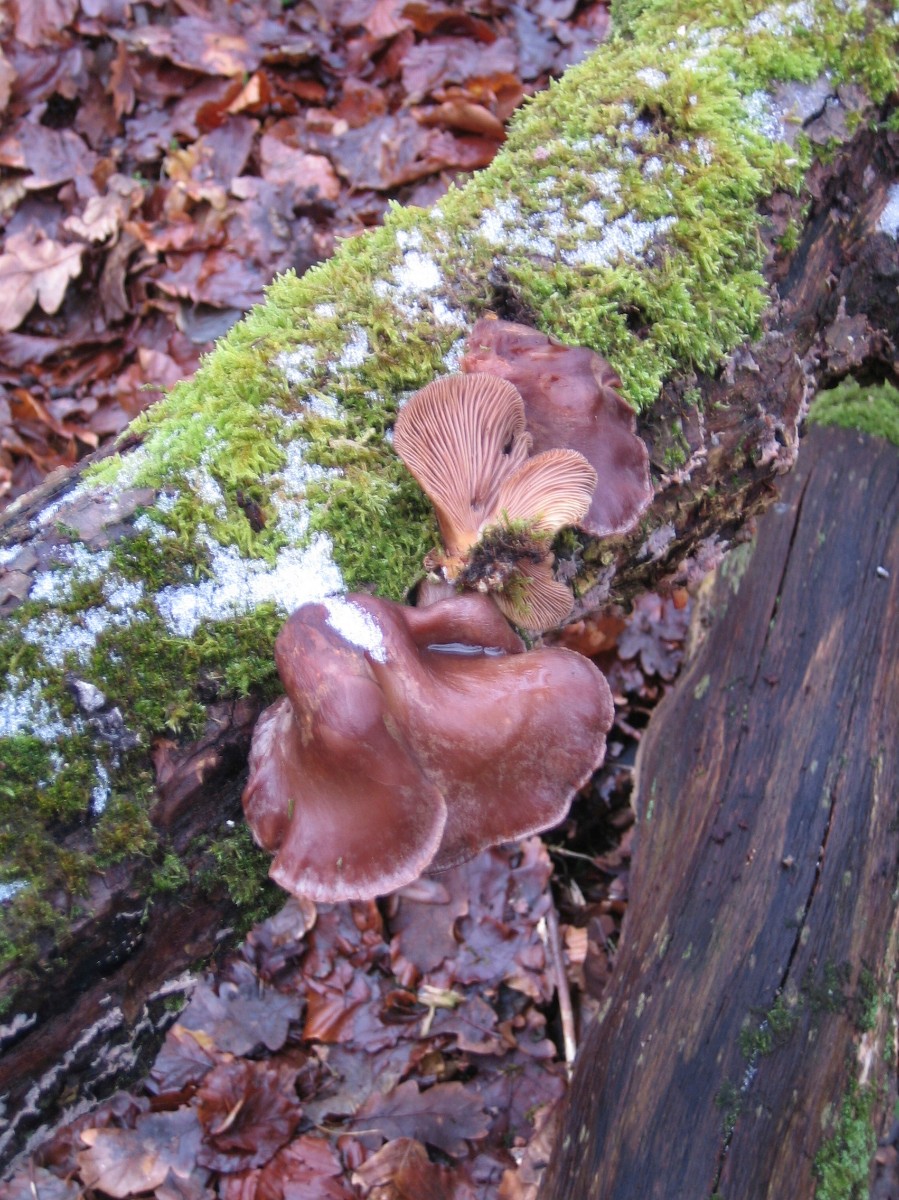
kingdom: Fungi
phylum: Basidiomycota
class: Agaricomycetes
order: Agaricales
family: Sarcomyxaceae
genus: Sarcomyxa
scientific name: Sarcomyxa serotina
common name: gummihat
